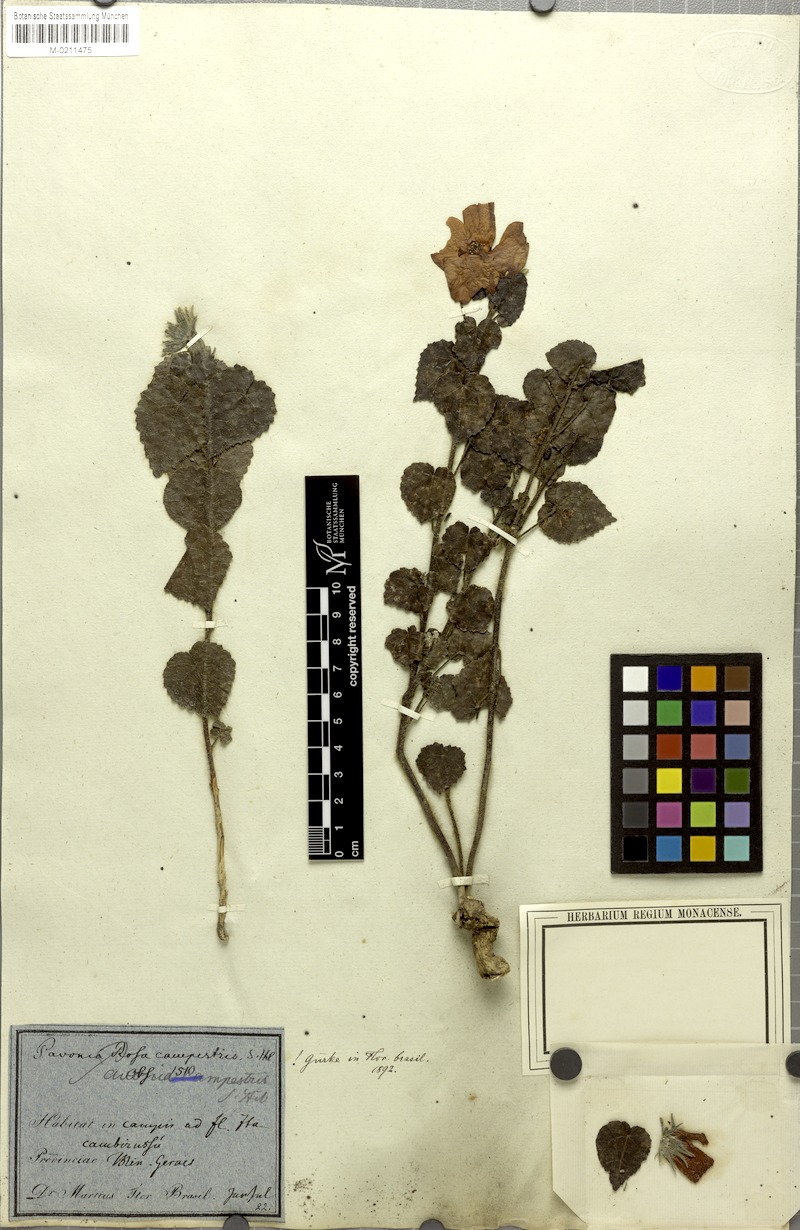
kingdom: Plantae
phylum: Tracheophyta
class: Magnoliopsida
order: Malvales
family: Malvaceae
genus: Pavonia
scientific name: Pavonia rosa-campestris
